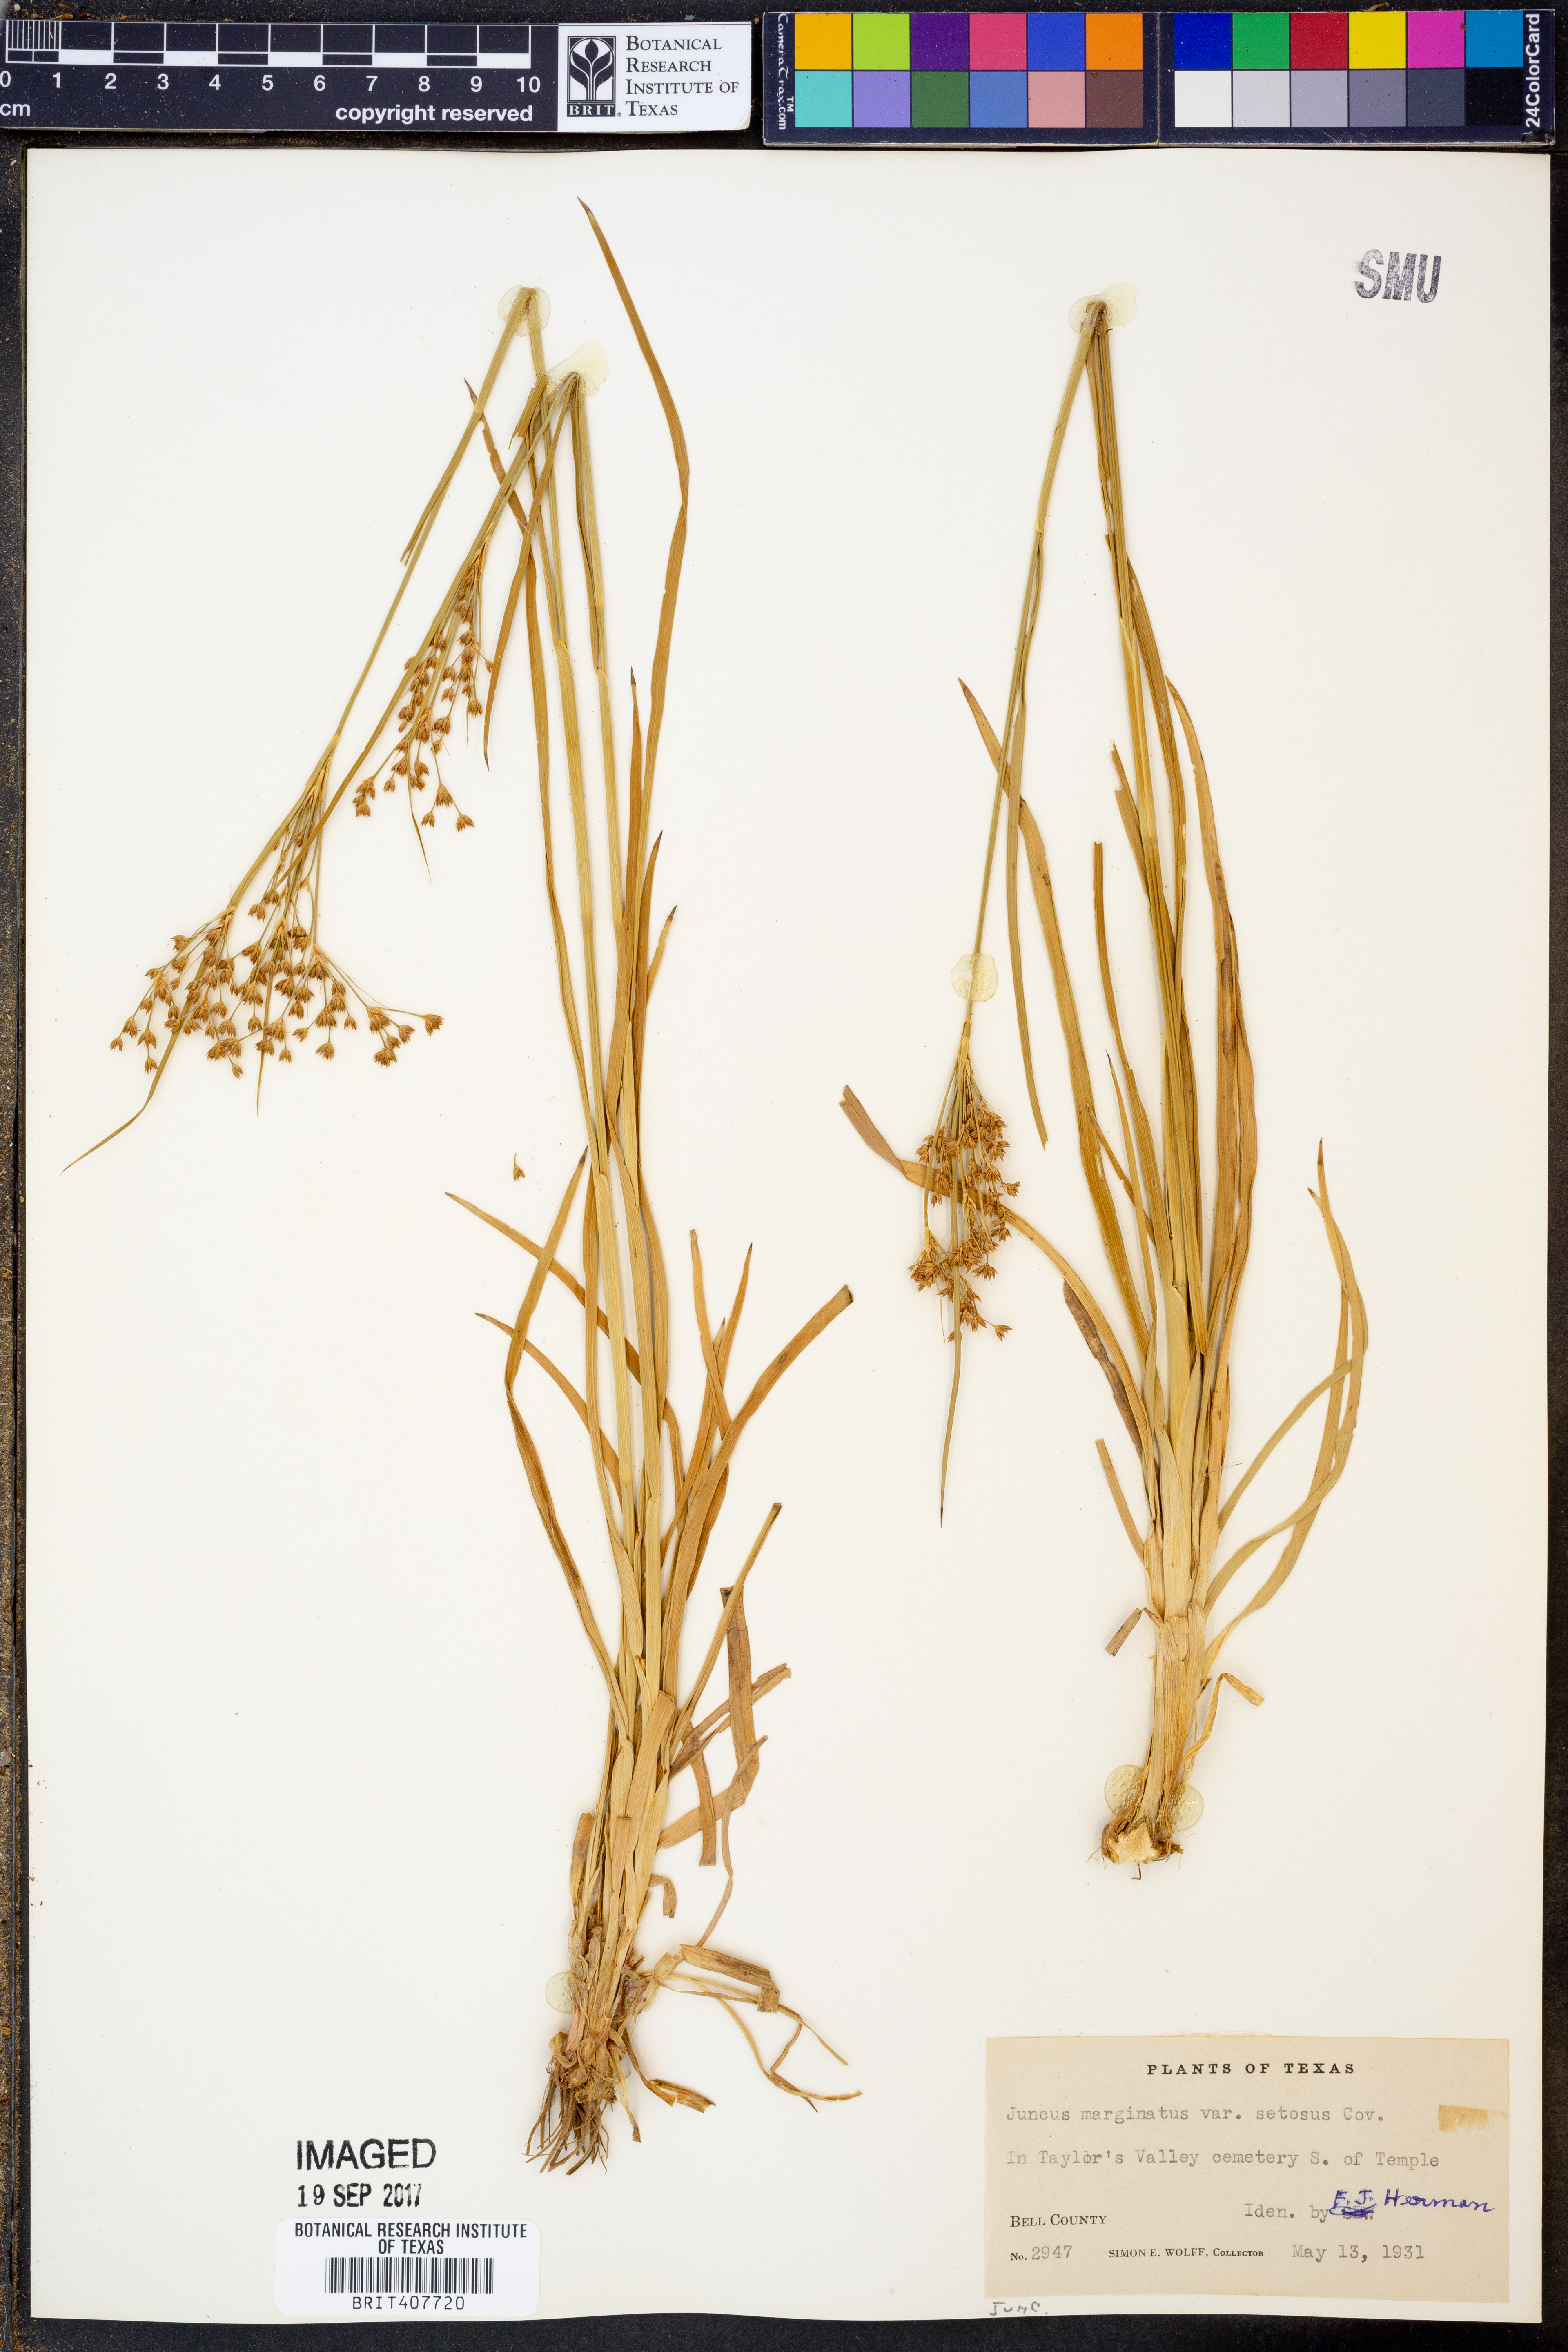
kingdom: Plantae
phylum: Tracheophyta
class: Liliopsida
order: Poales
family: Juncaceae
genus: Juncus
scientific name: Juncus marginatus
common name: Grass-leaf rush
